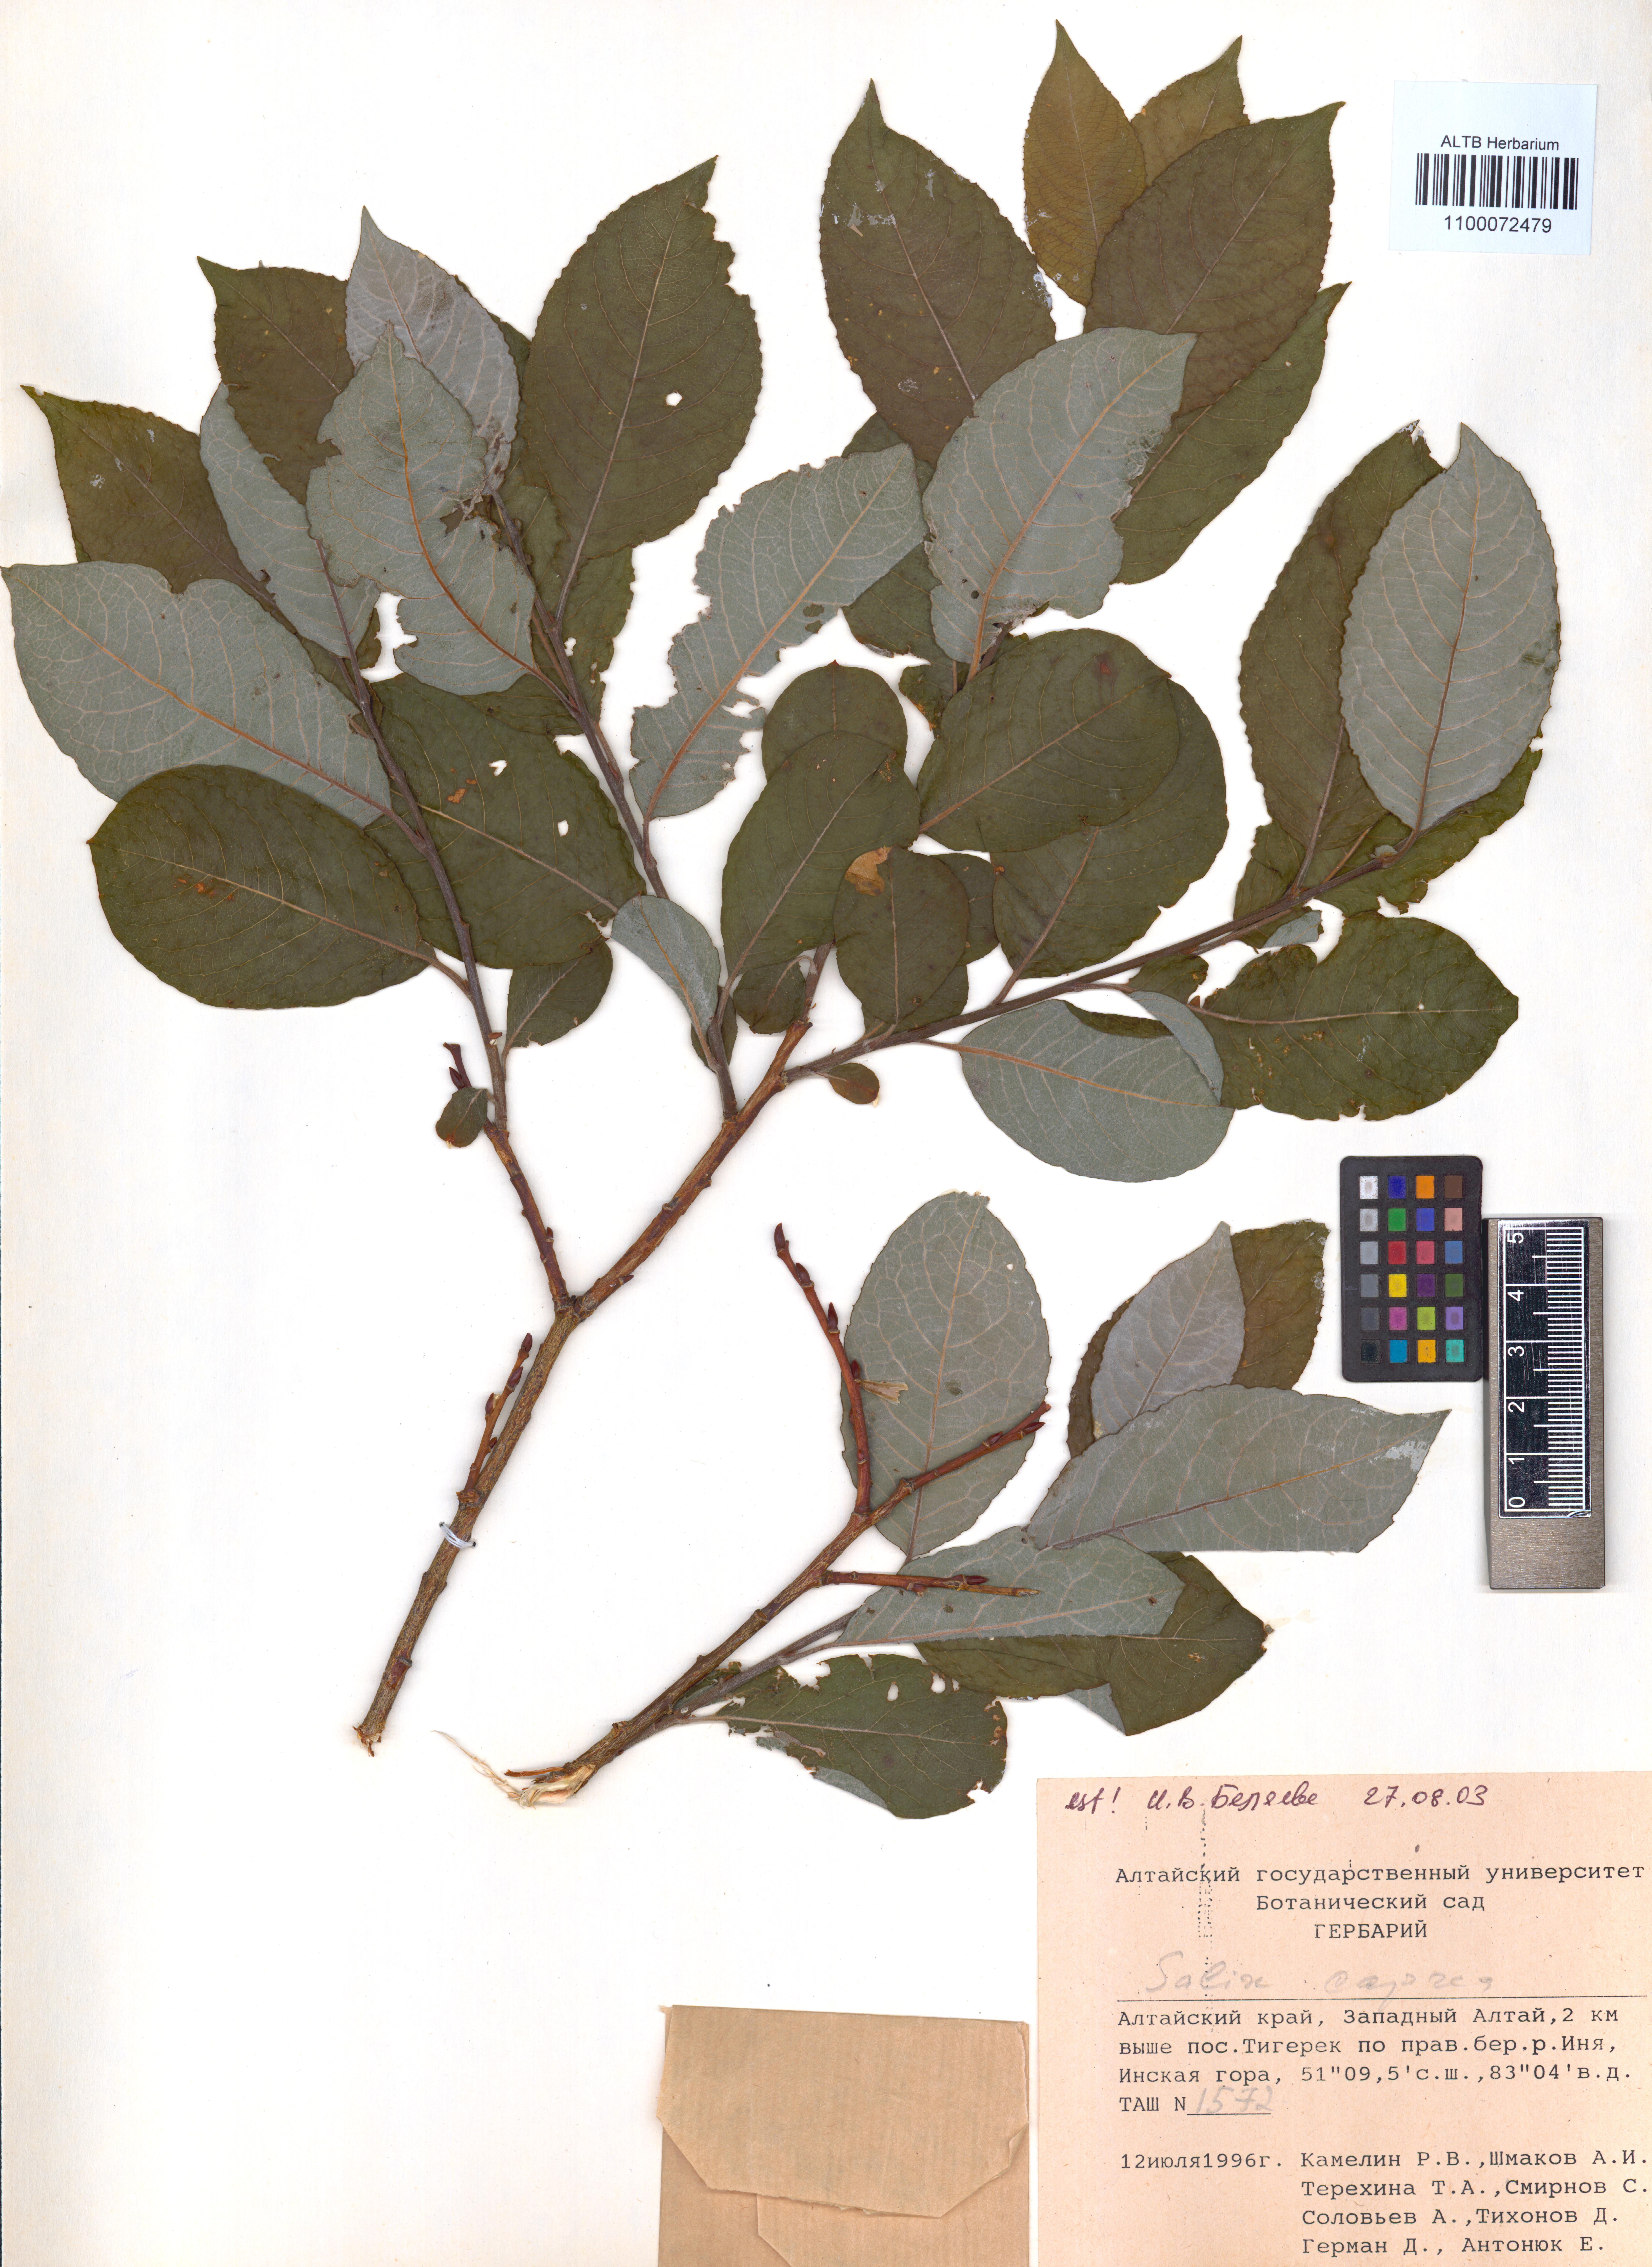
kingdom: Plantae
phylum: Tracheophyta
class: Magnoliopsida
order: Malpighiales
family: Salicaceae
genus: Salix
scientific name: Salix caprea
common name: Goat willow
